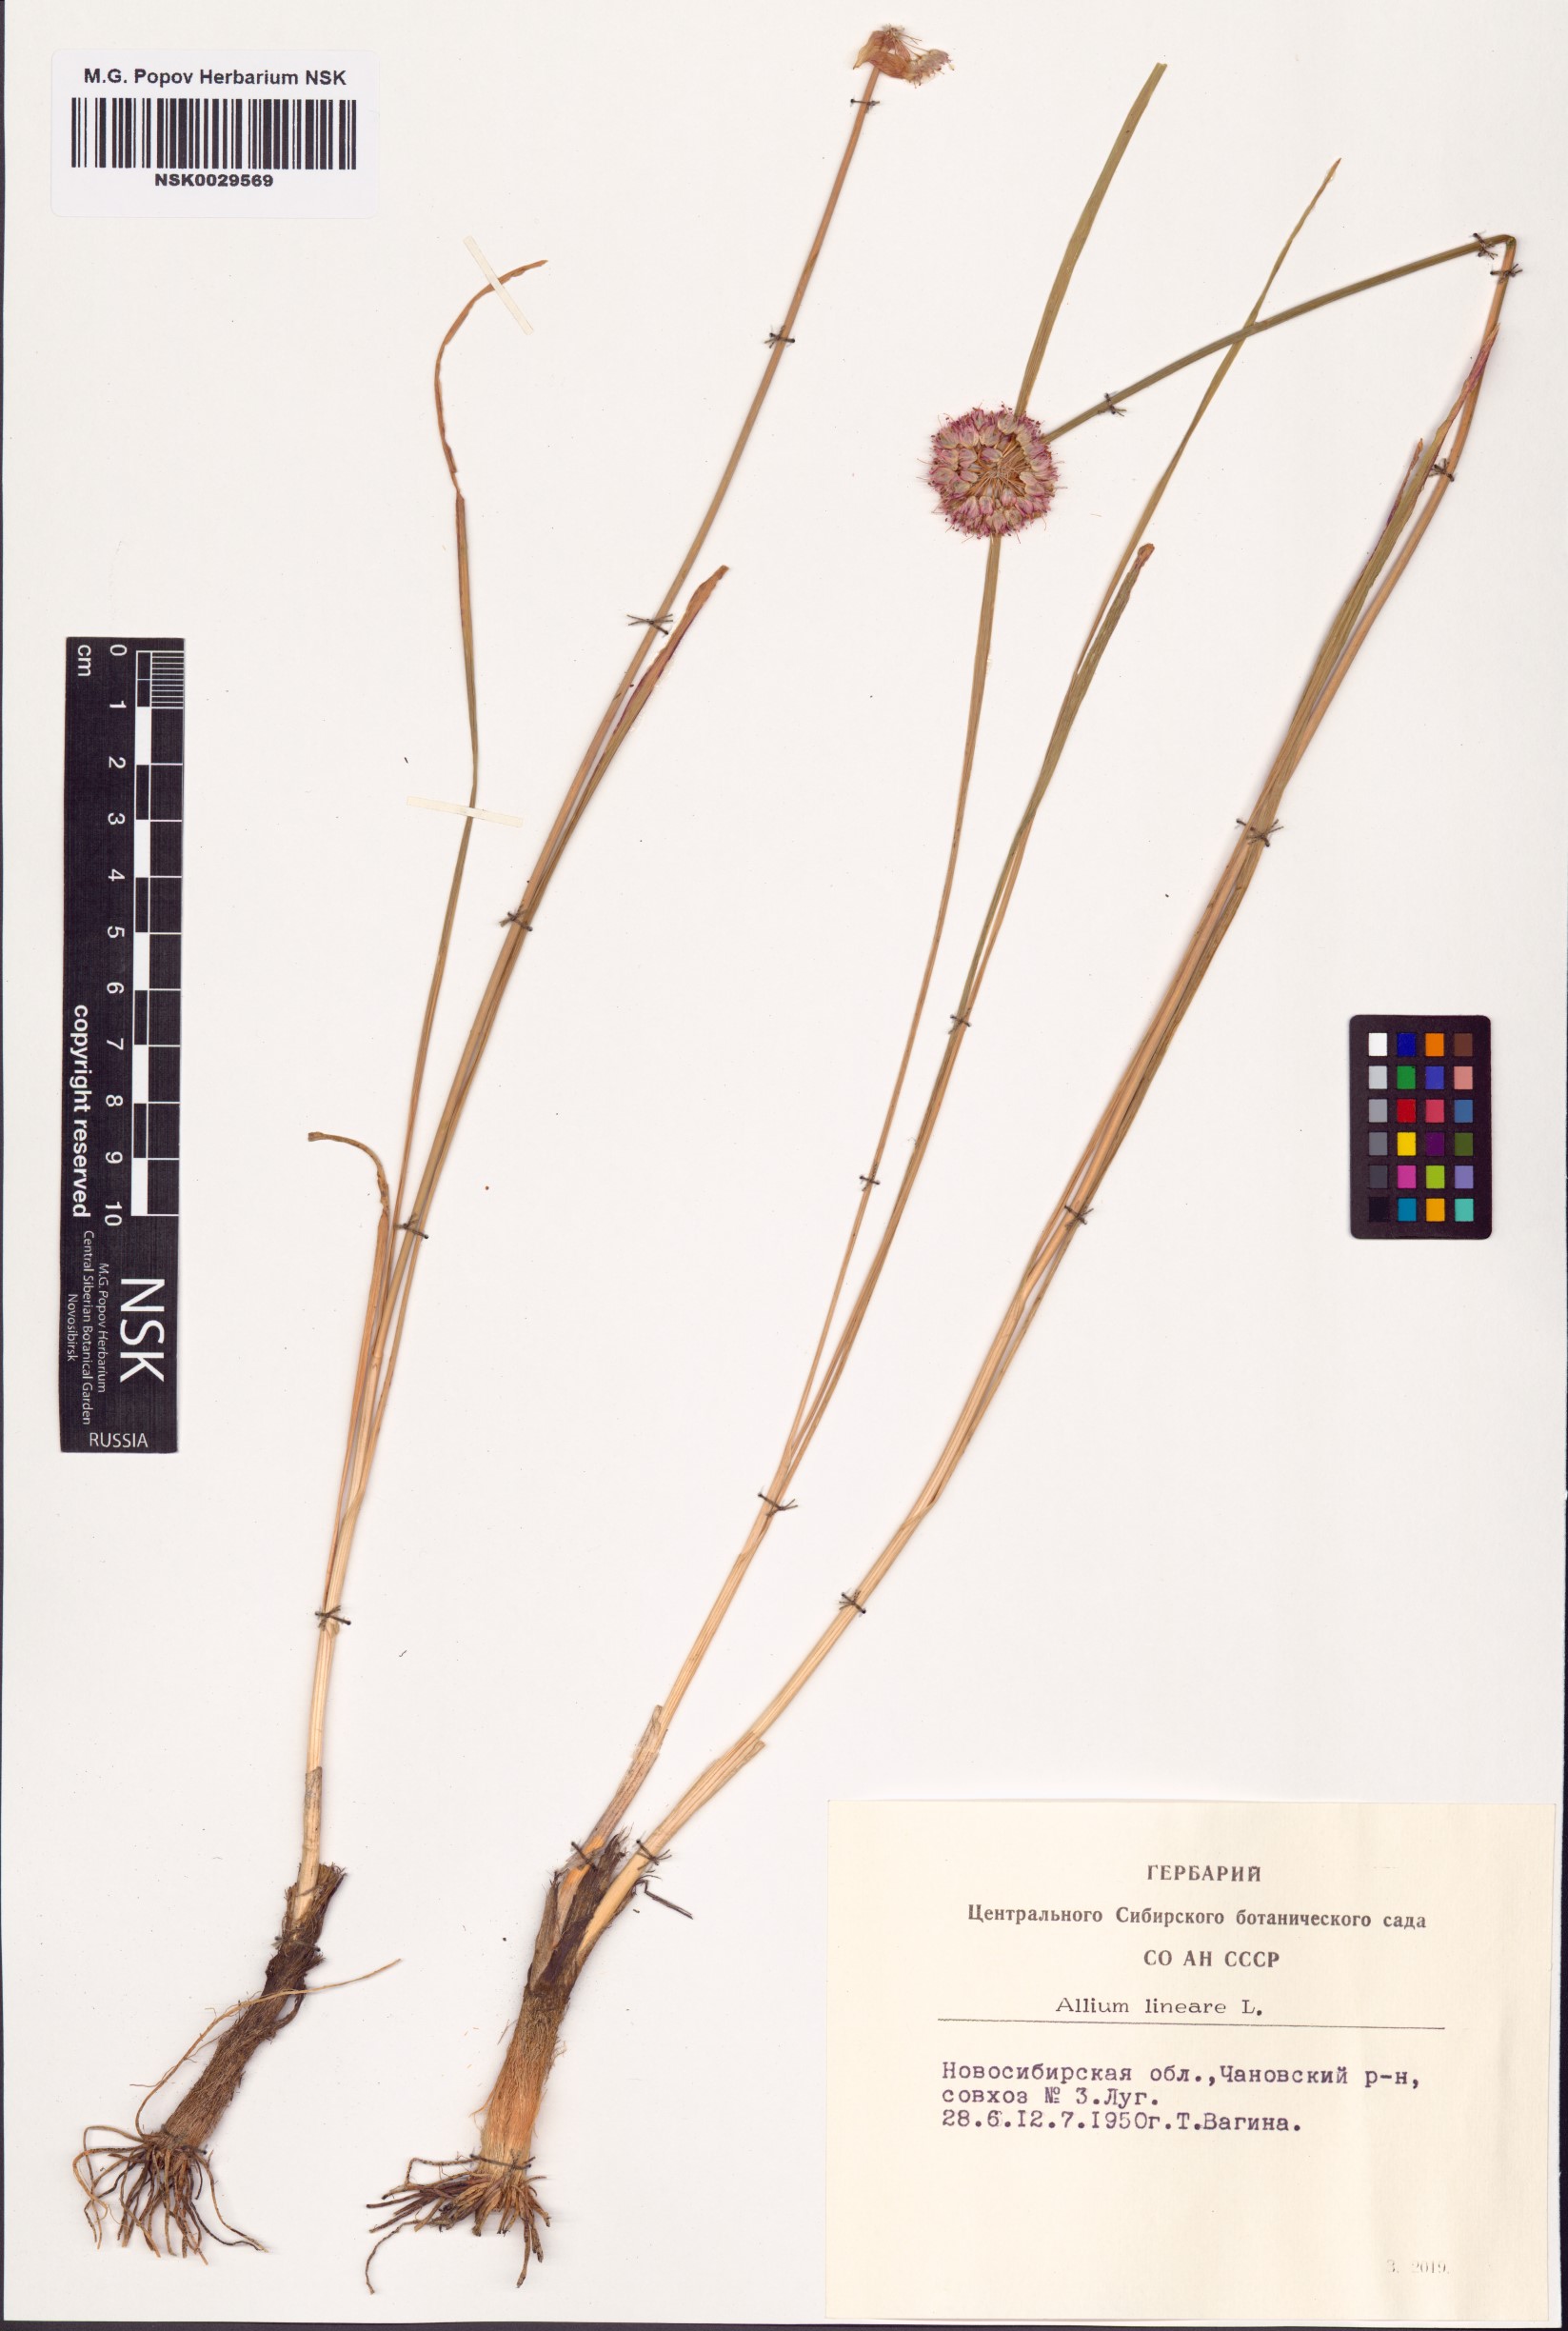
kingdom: Plantae
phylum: Tracheophyta
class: Liliopsida
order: Asparagales
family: Amaryllidaceae
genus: Allium
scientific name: Allium lineare
